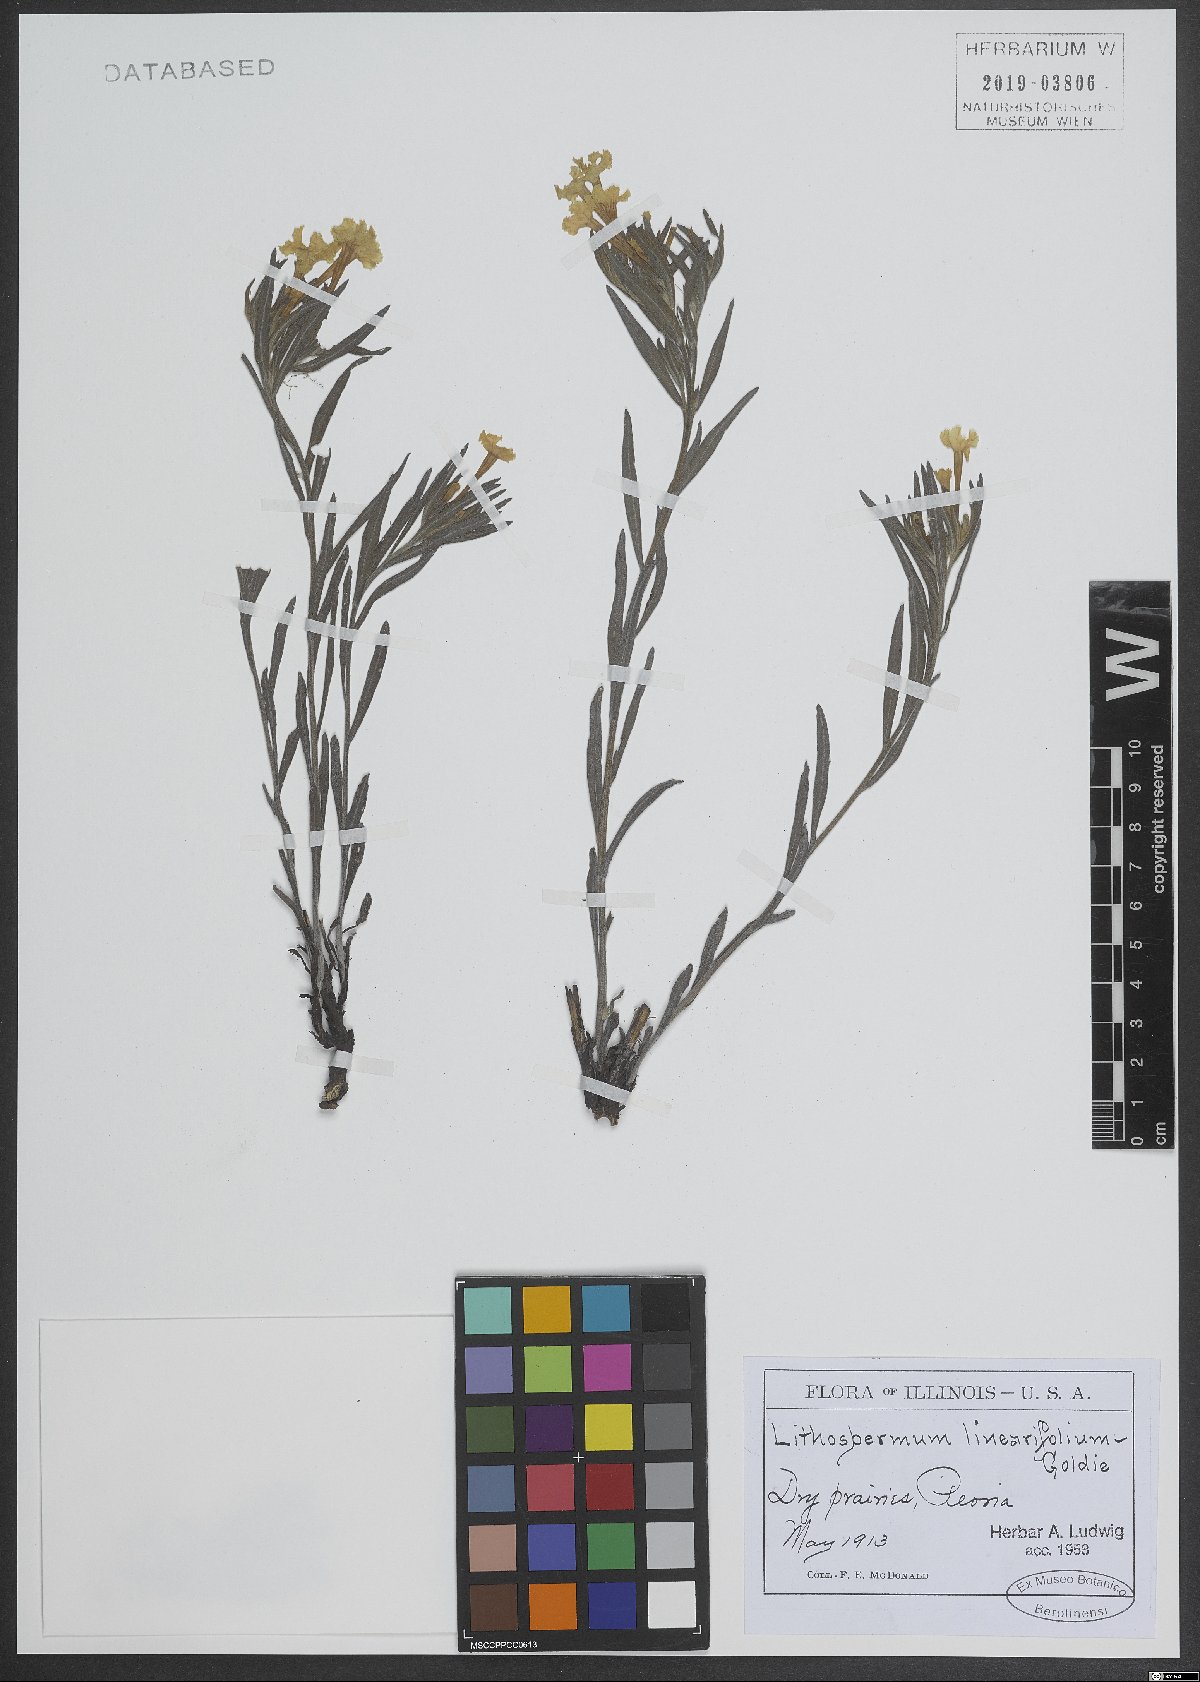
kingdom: Plantae
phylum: Tracheophyta
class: Magnoliopsida
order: Boraginales
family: Boraginaceae
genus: Lithospermum
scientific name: Lithospermum incisum
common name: Fringed gromwell
